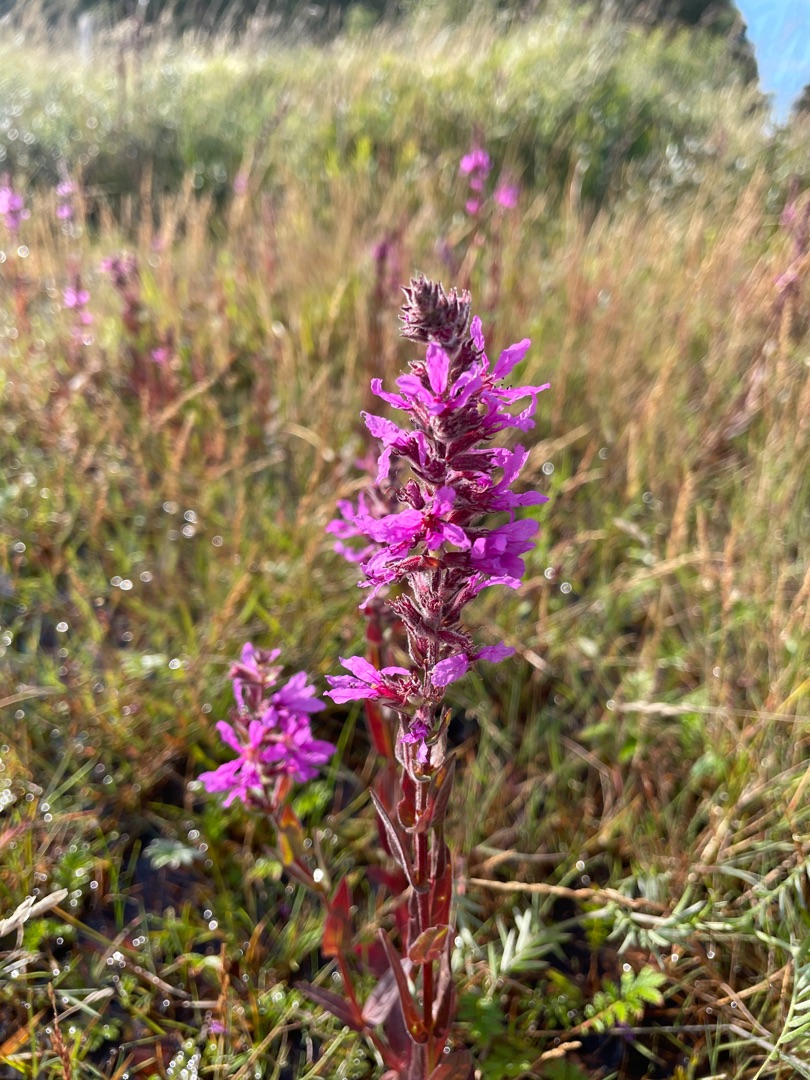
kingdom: Plantae
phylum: Tracheophyta
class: Magnoliopsida
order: Myrtales
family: Lythraceae
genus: Lythrum
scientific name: Lythrum salicaria
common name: Kattehale
